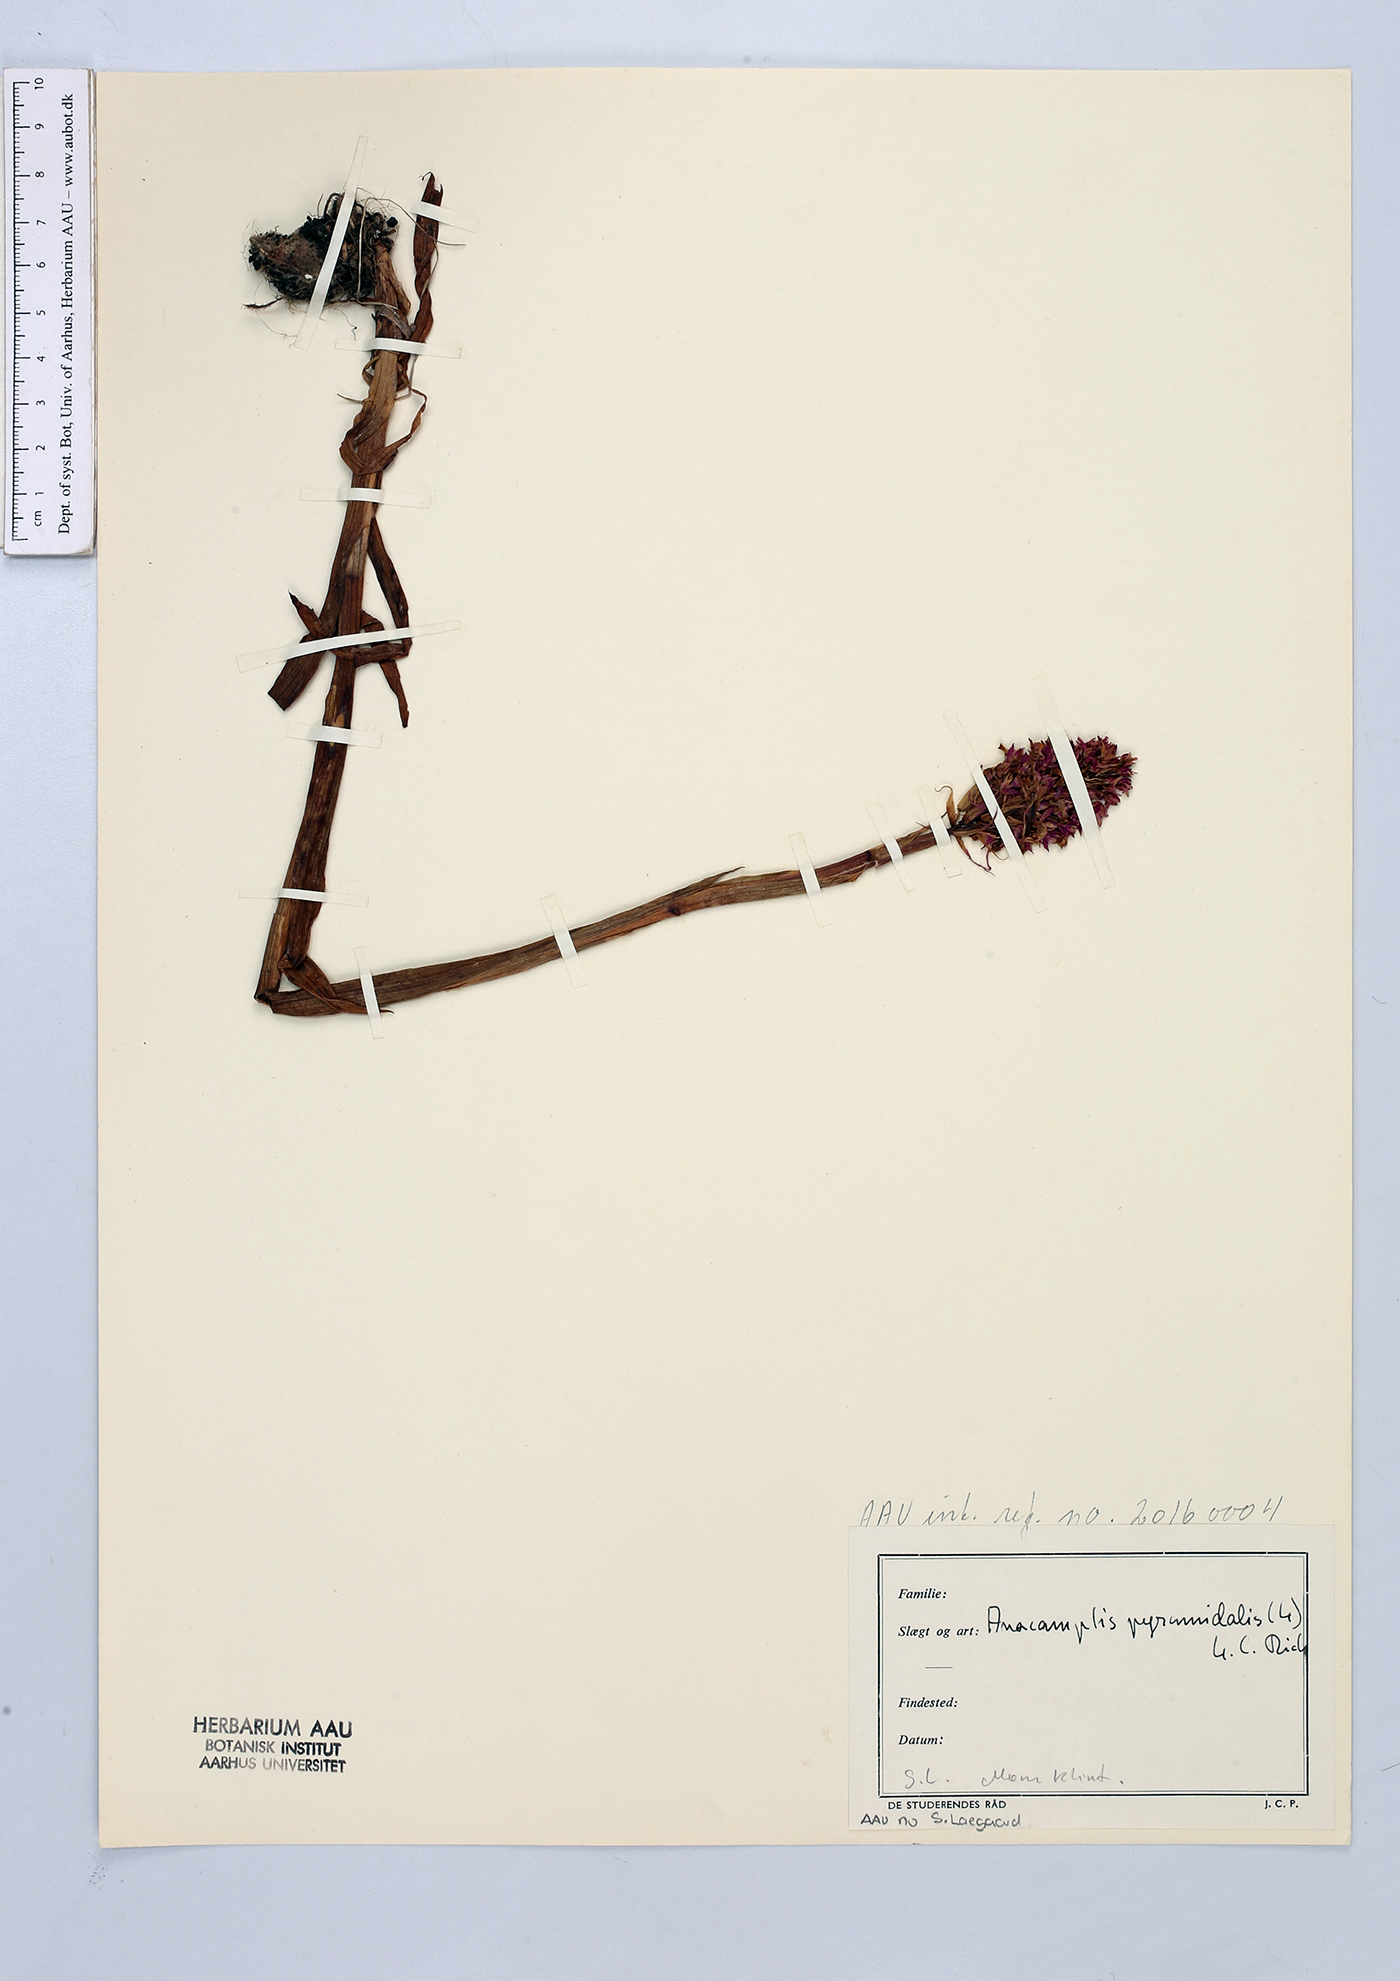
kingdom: Plantae
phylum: Tracheophyta
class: Liliopsida
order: Asparagales
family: Orchidaceae
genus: Anacamptis
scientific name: Anacamptis pyramidalis
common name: Pyramidal orchid
